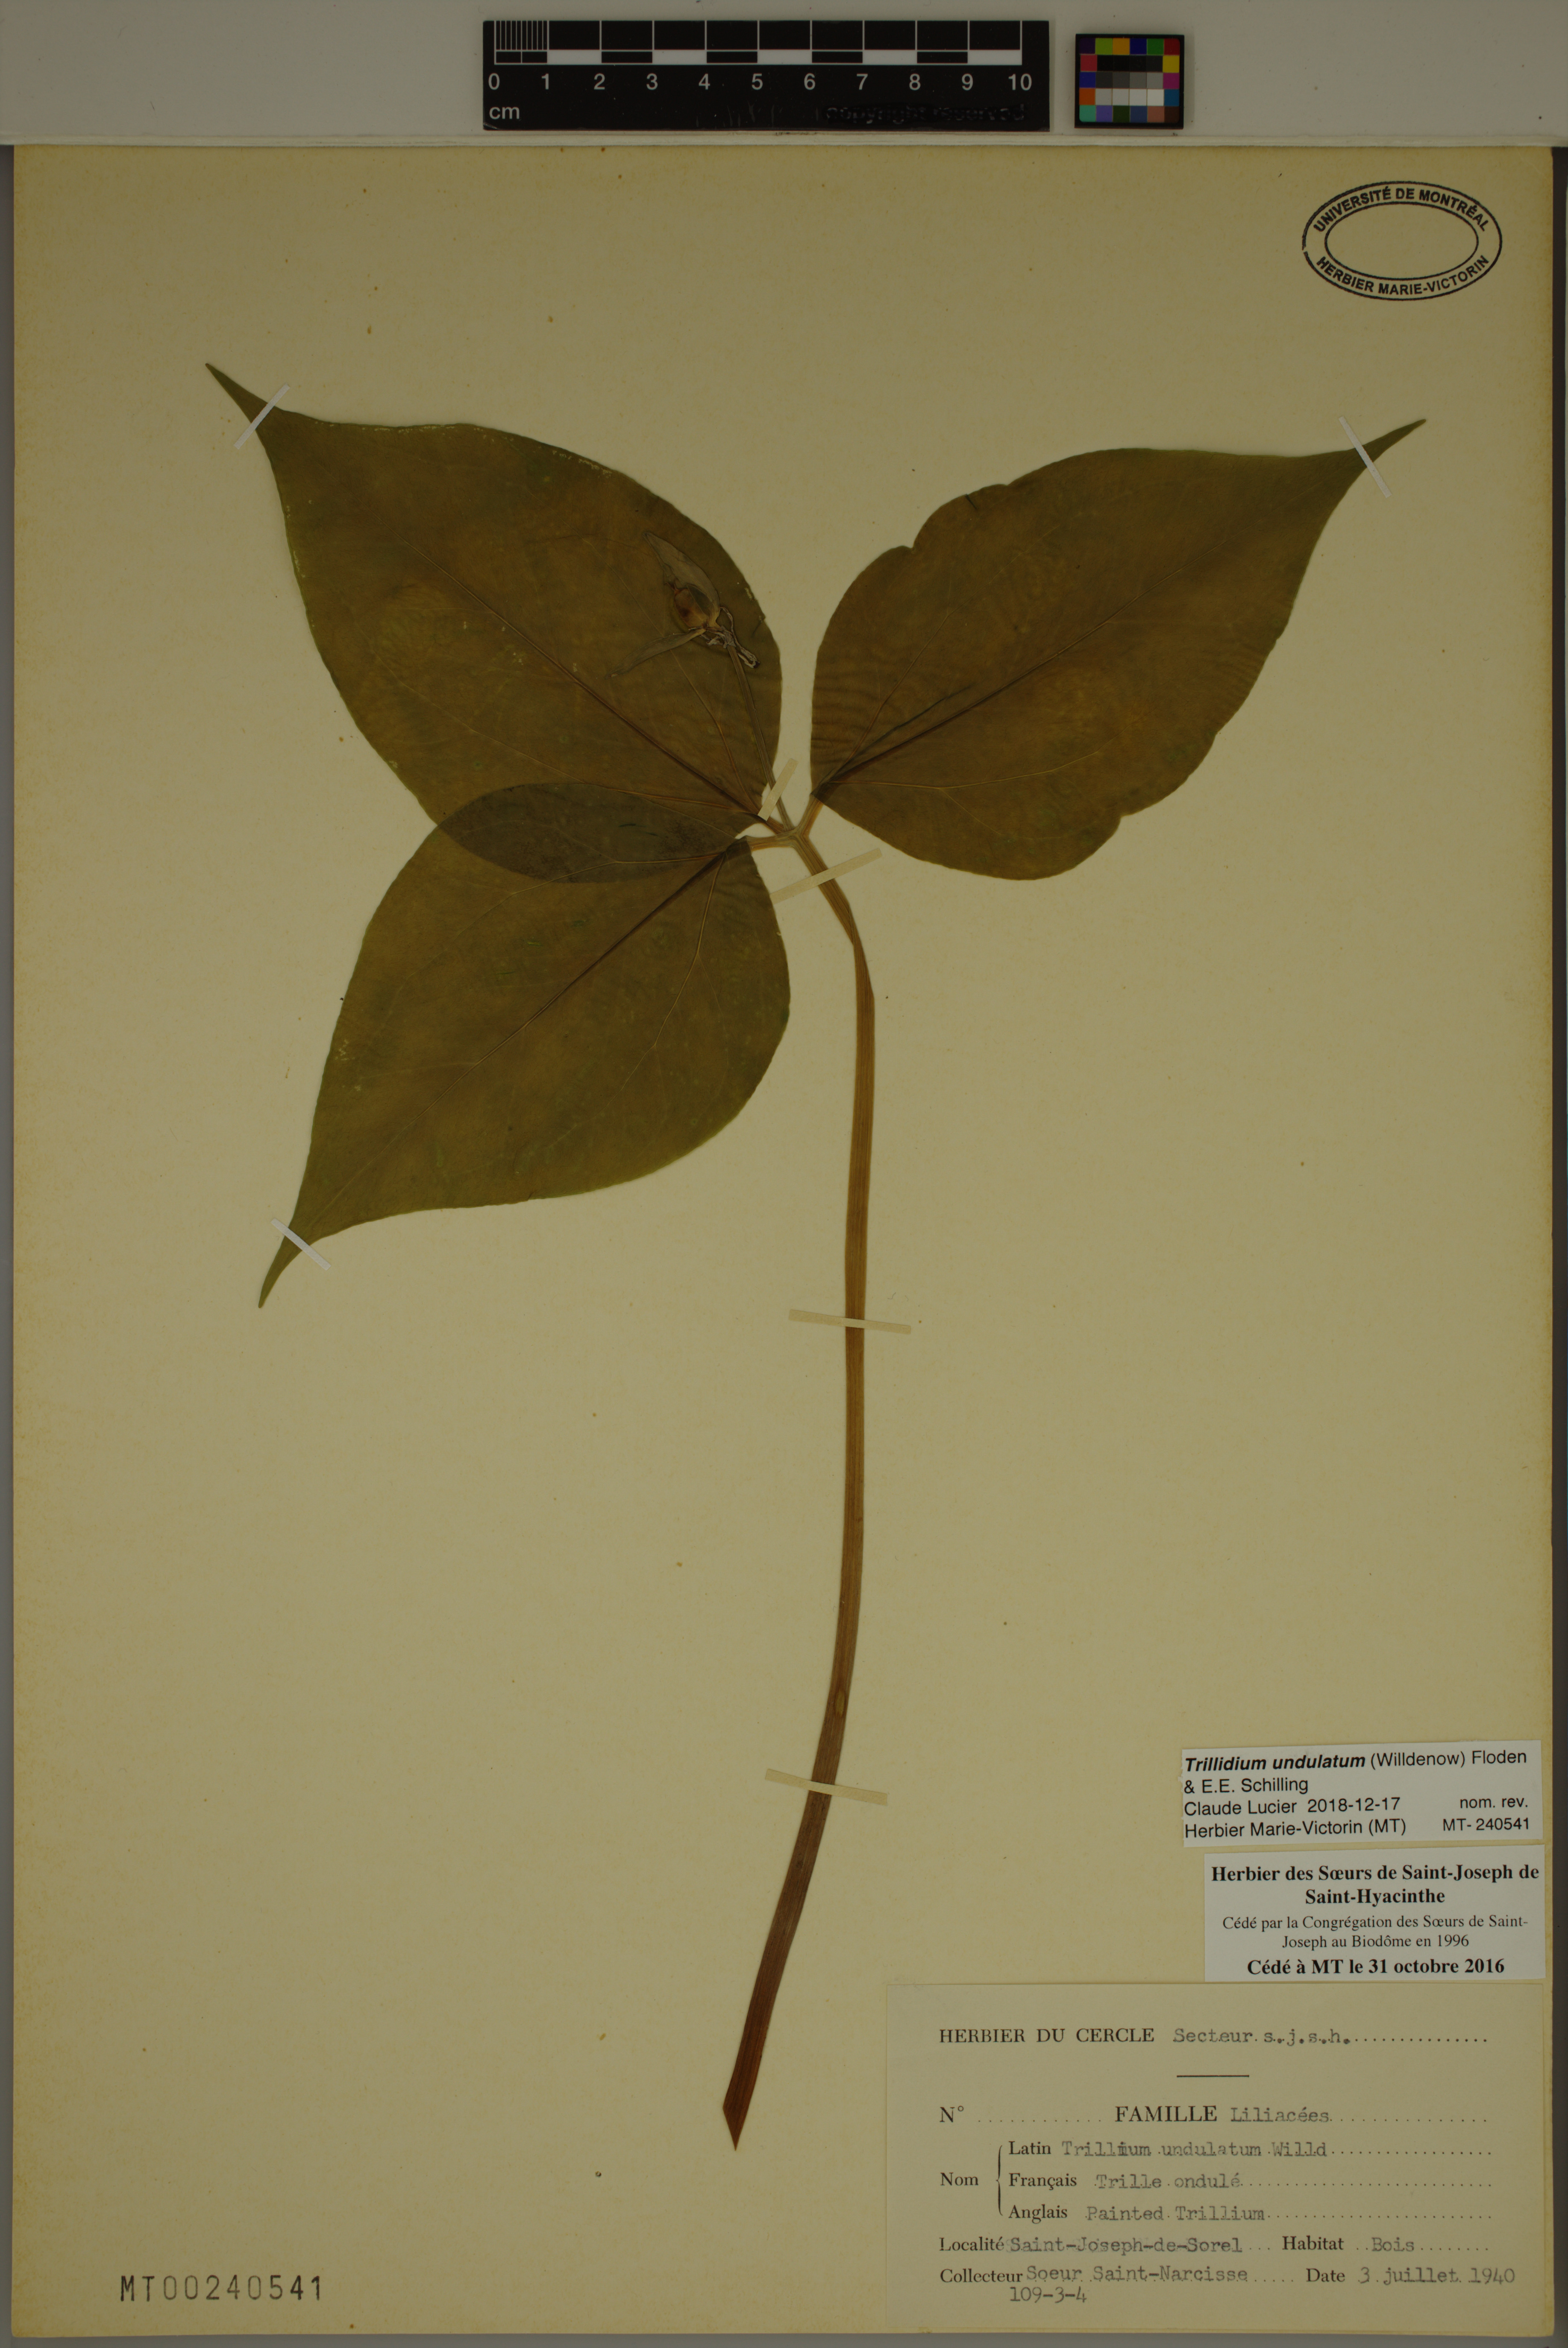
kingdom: Plantae
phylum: Tracheophyta
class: Liliopsida
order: Liliales
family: Melanthiaceae
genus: Trillium
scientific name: Trillium undulatum
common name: Paint trillium
